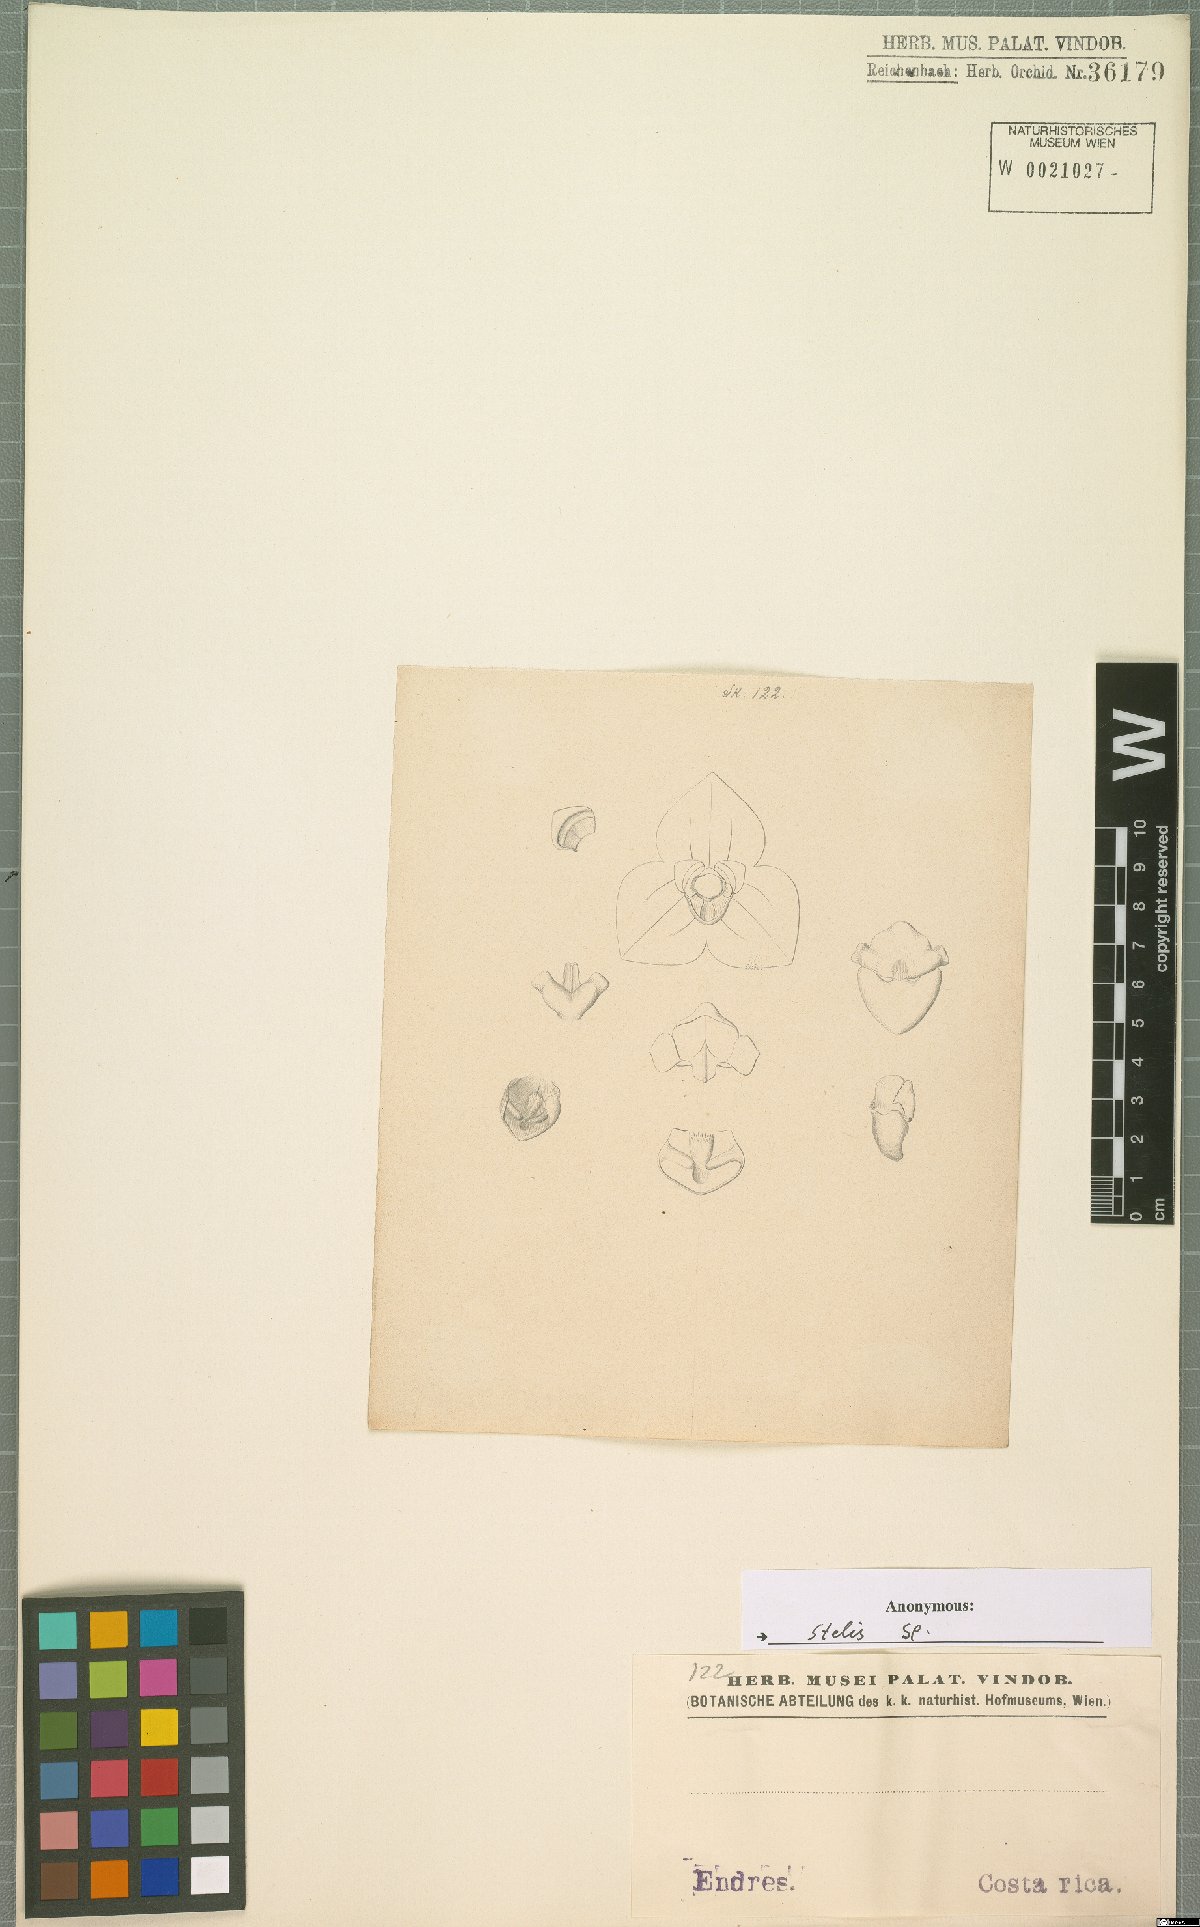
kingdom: Plantae
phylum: Tracheophyta
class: Liliopsida
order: Asparagales
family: Orchidaceae
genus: Stelis
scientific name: Stelis
